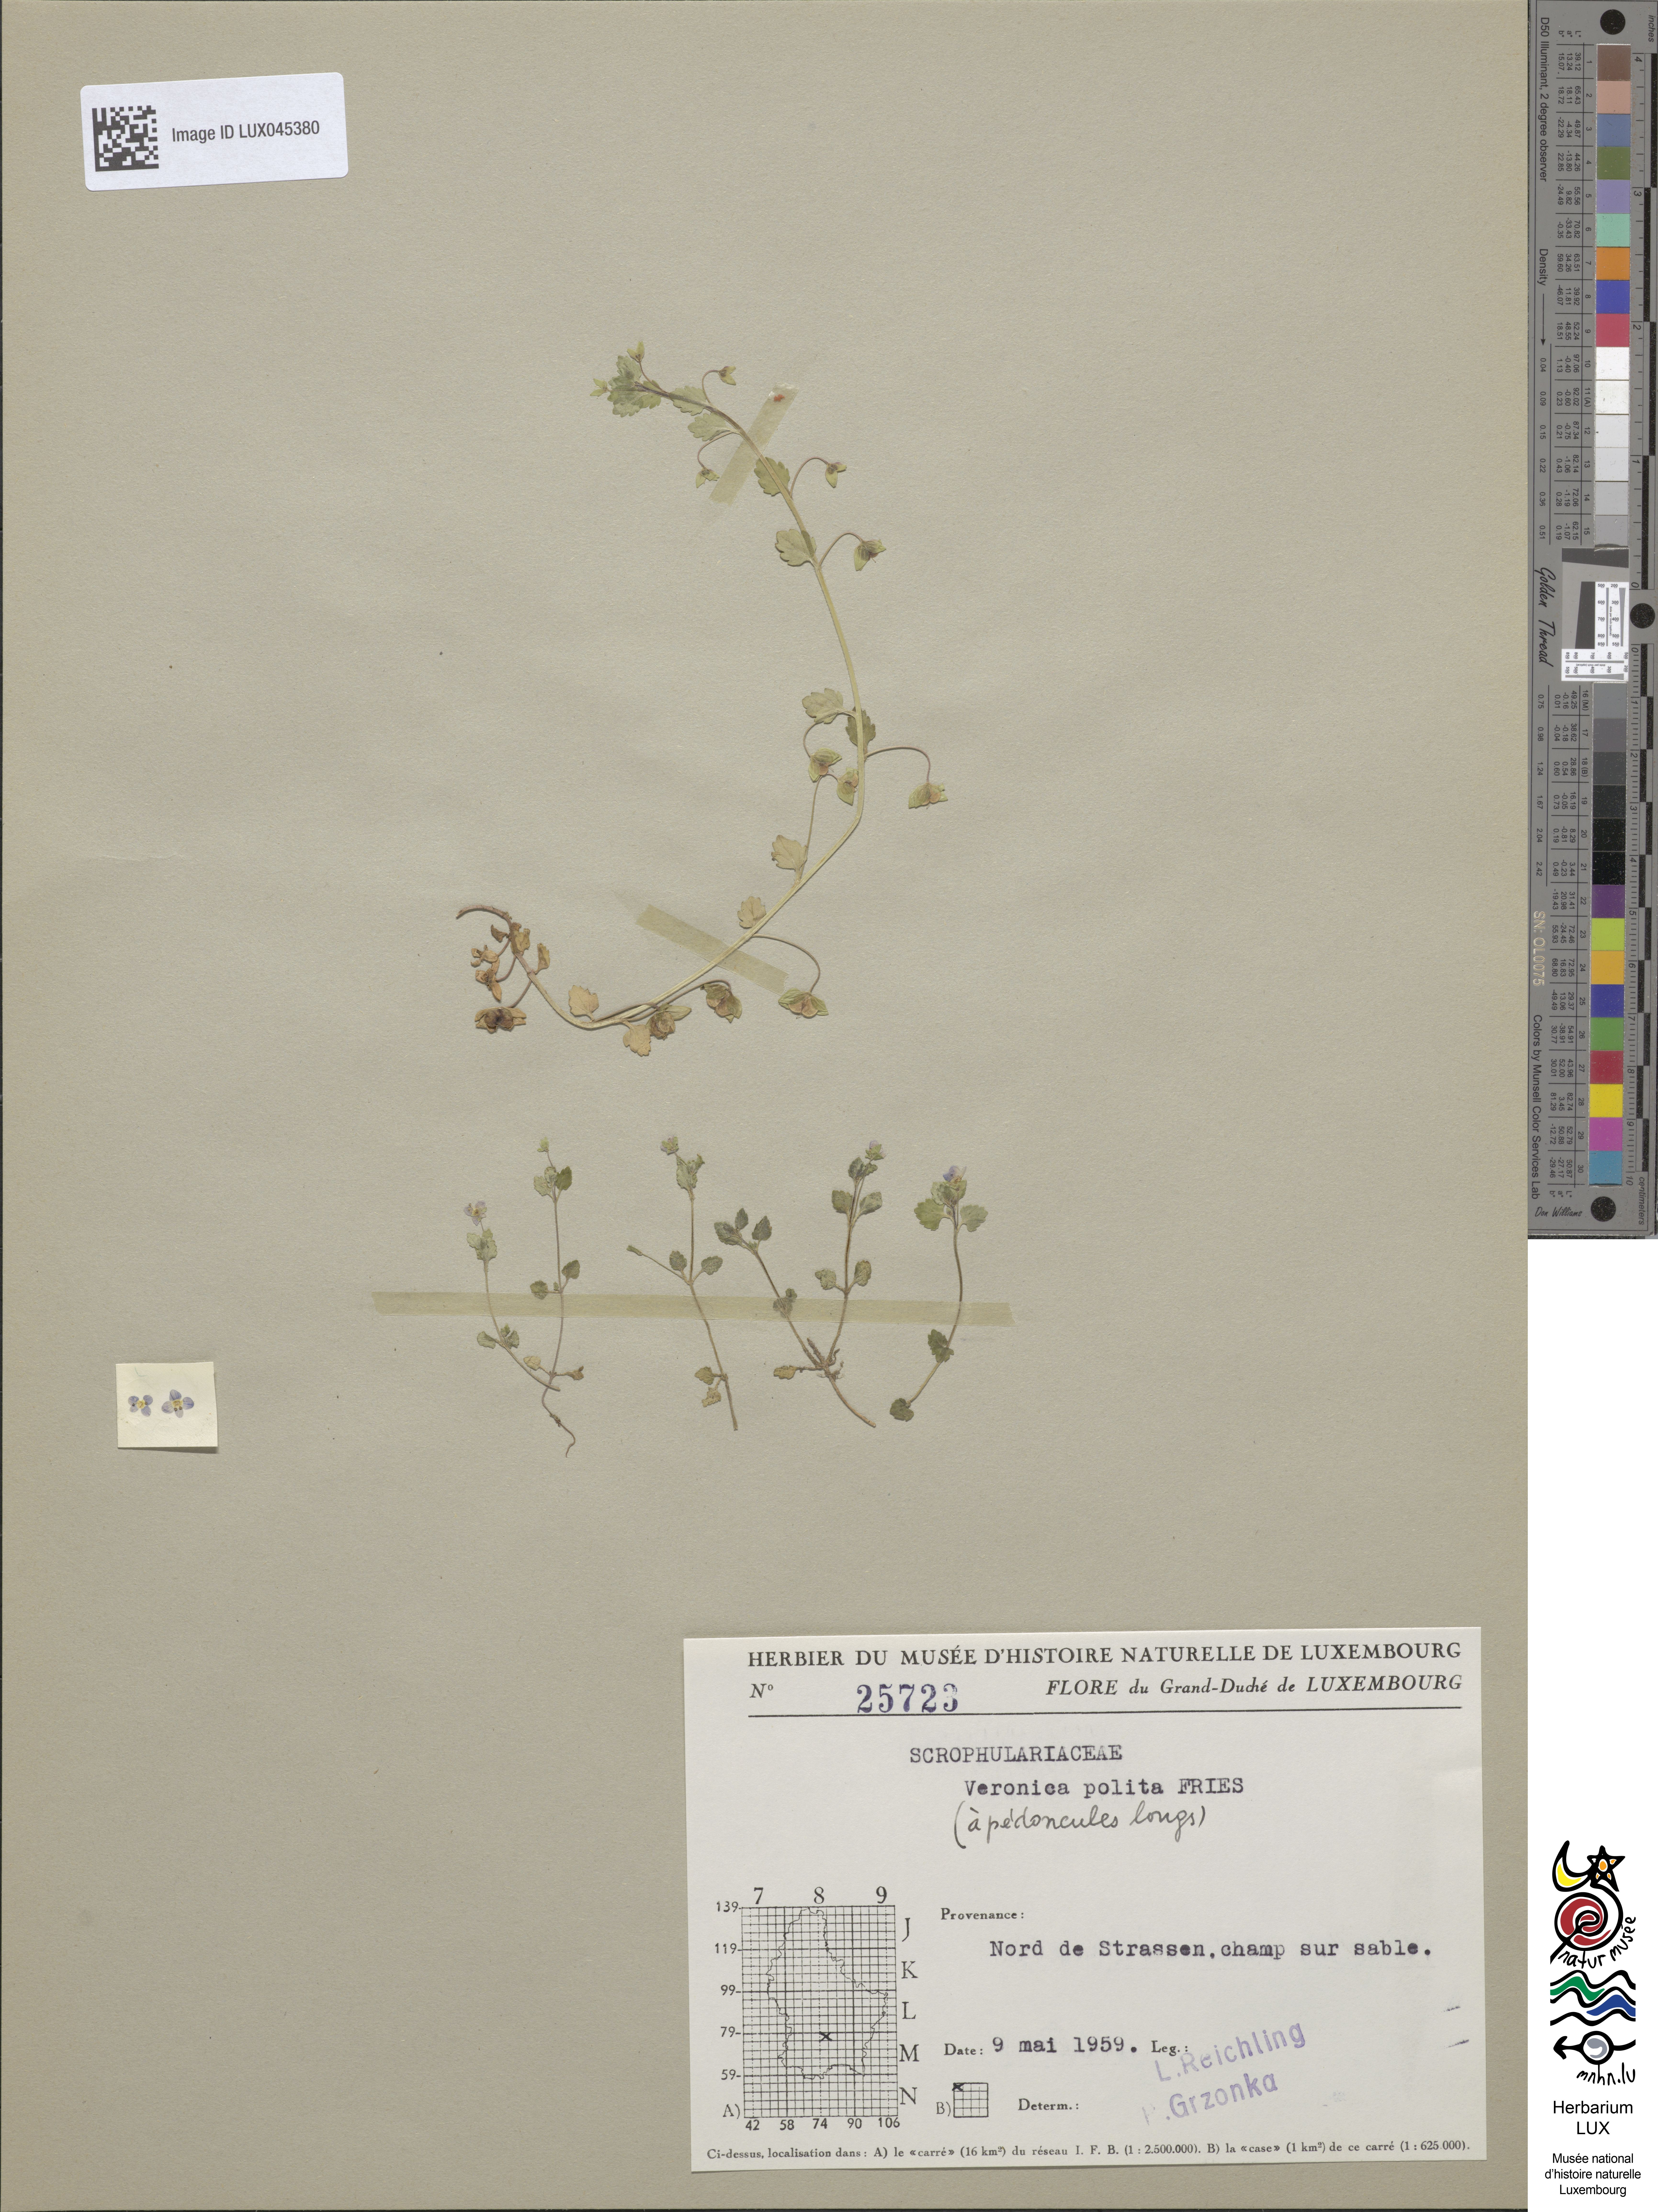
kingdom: Plantae
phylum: Tracheophyta
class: Magnoliopsida
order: Lamiales
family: Plantaginaceae
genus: Veronica
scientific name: Veronica polita
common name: Grey field-speedwell
